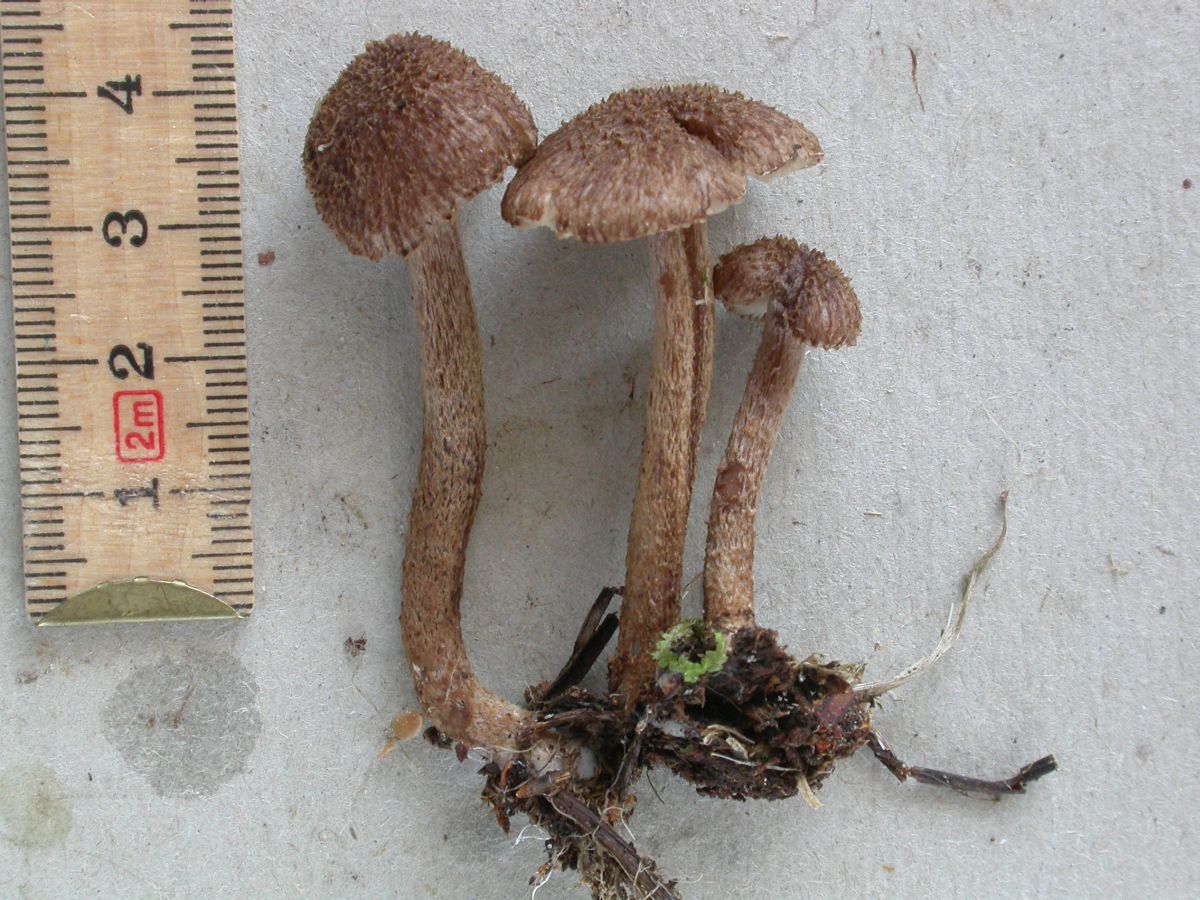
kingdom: Fungi
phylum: Basidiomycota
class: Agaricomycetes
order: Agaricales
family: Inocybaceae
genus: Inocybe
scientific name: Inocybe lanuginosa
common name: uldskællet trævlhat
